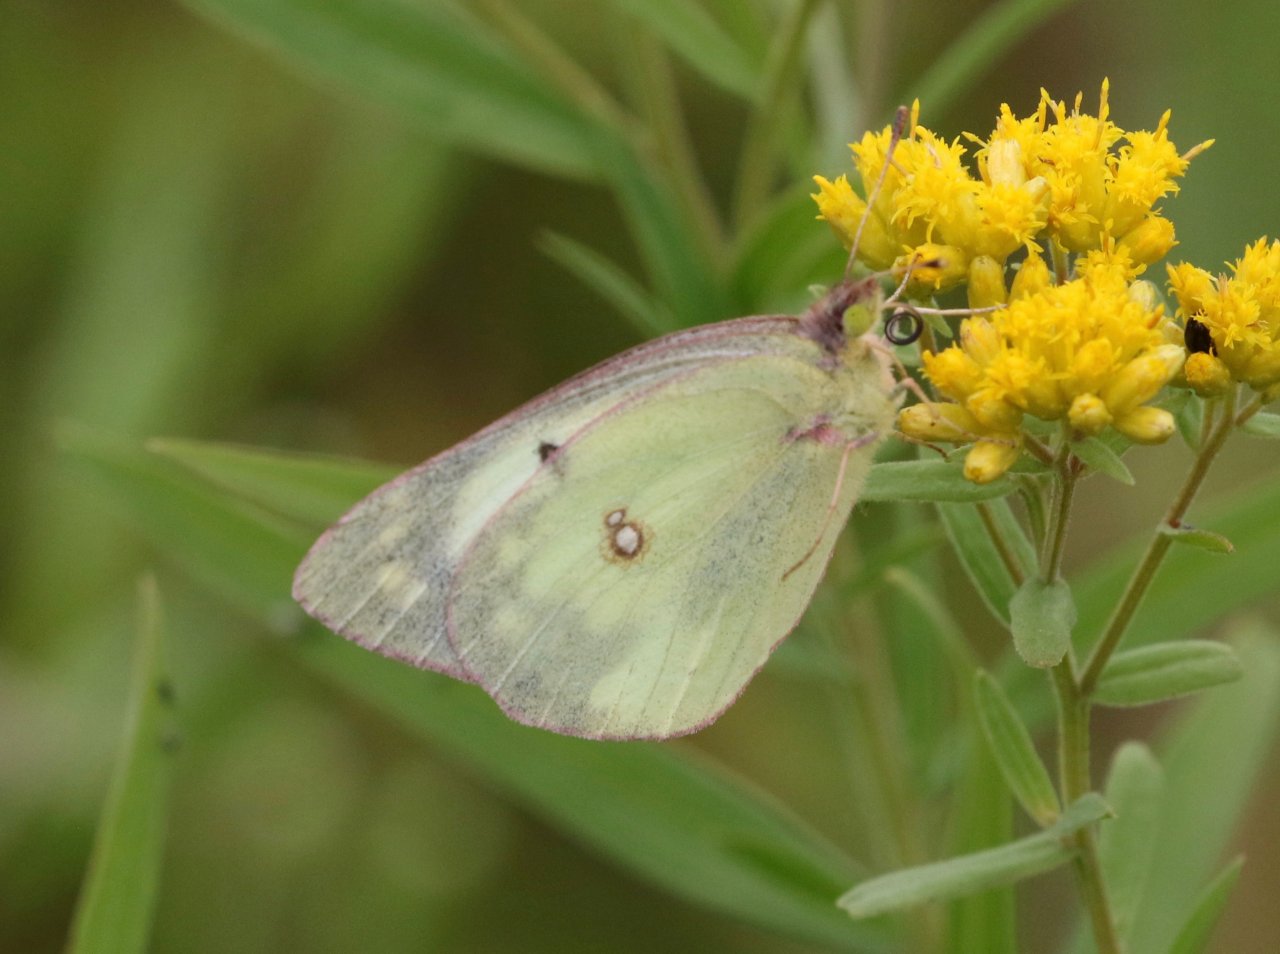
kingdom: Animalia
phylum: Arthropoda
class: Insecta
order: Lepidoptera
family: Pieridae
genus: Colias
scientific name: Colias philodice
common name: Clouded Sulphur
